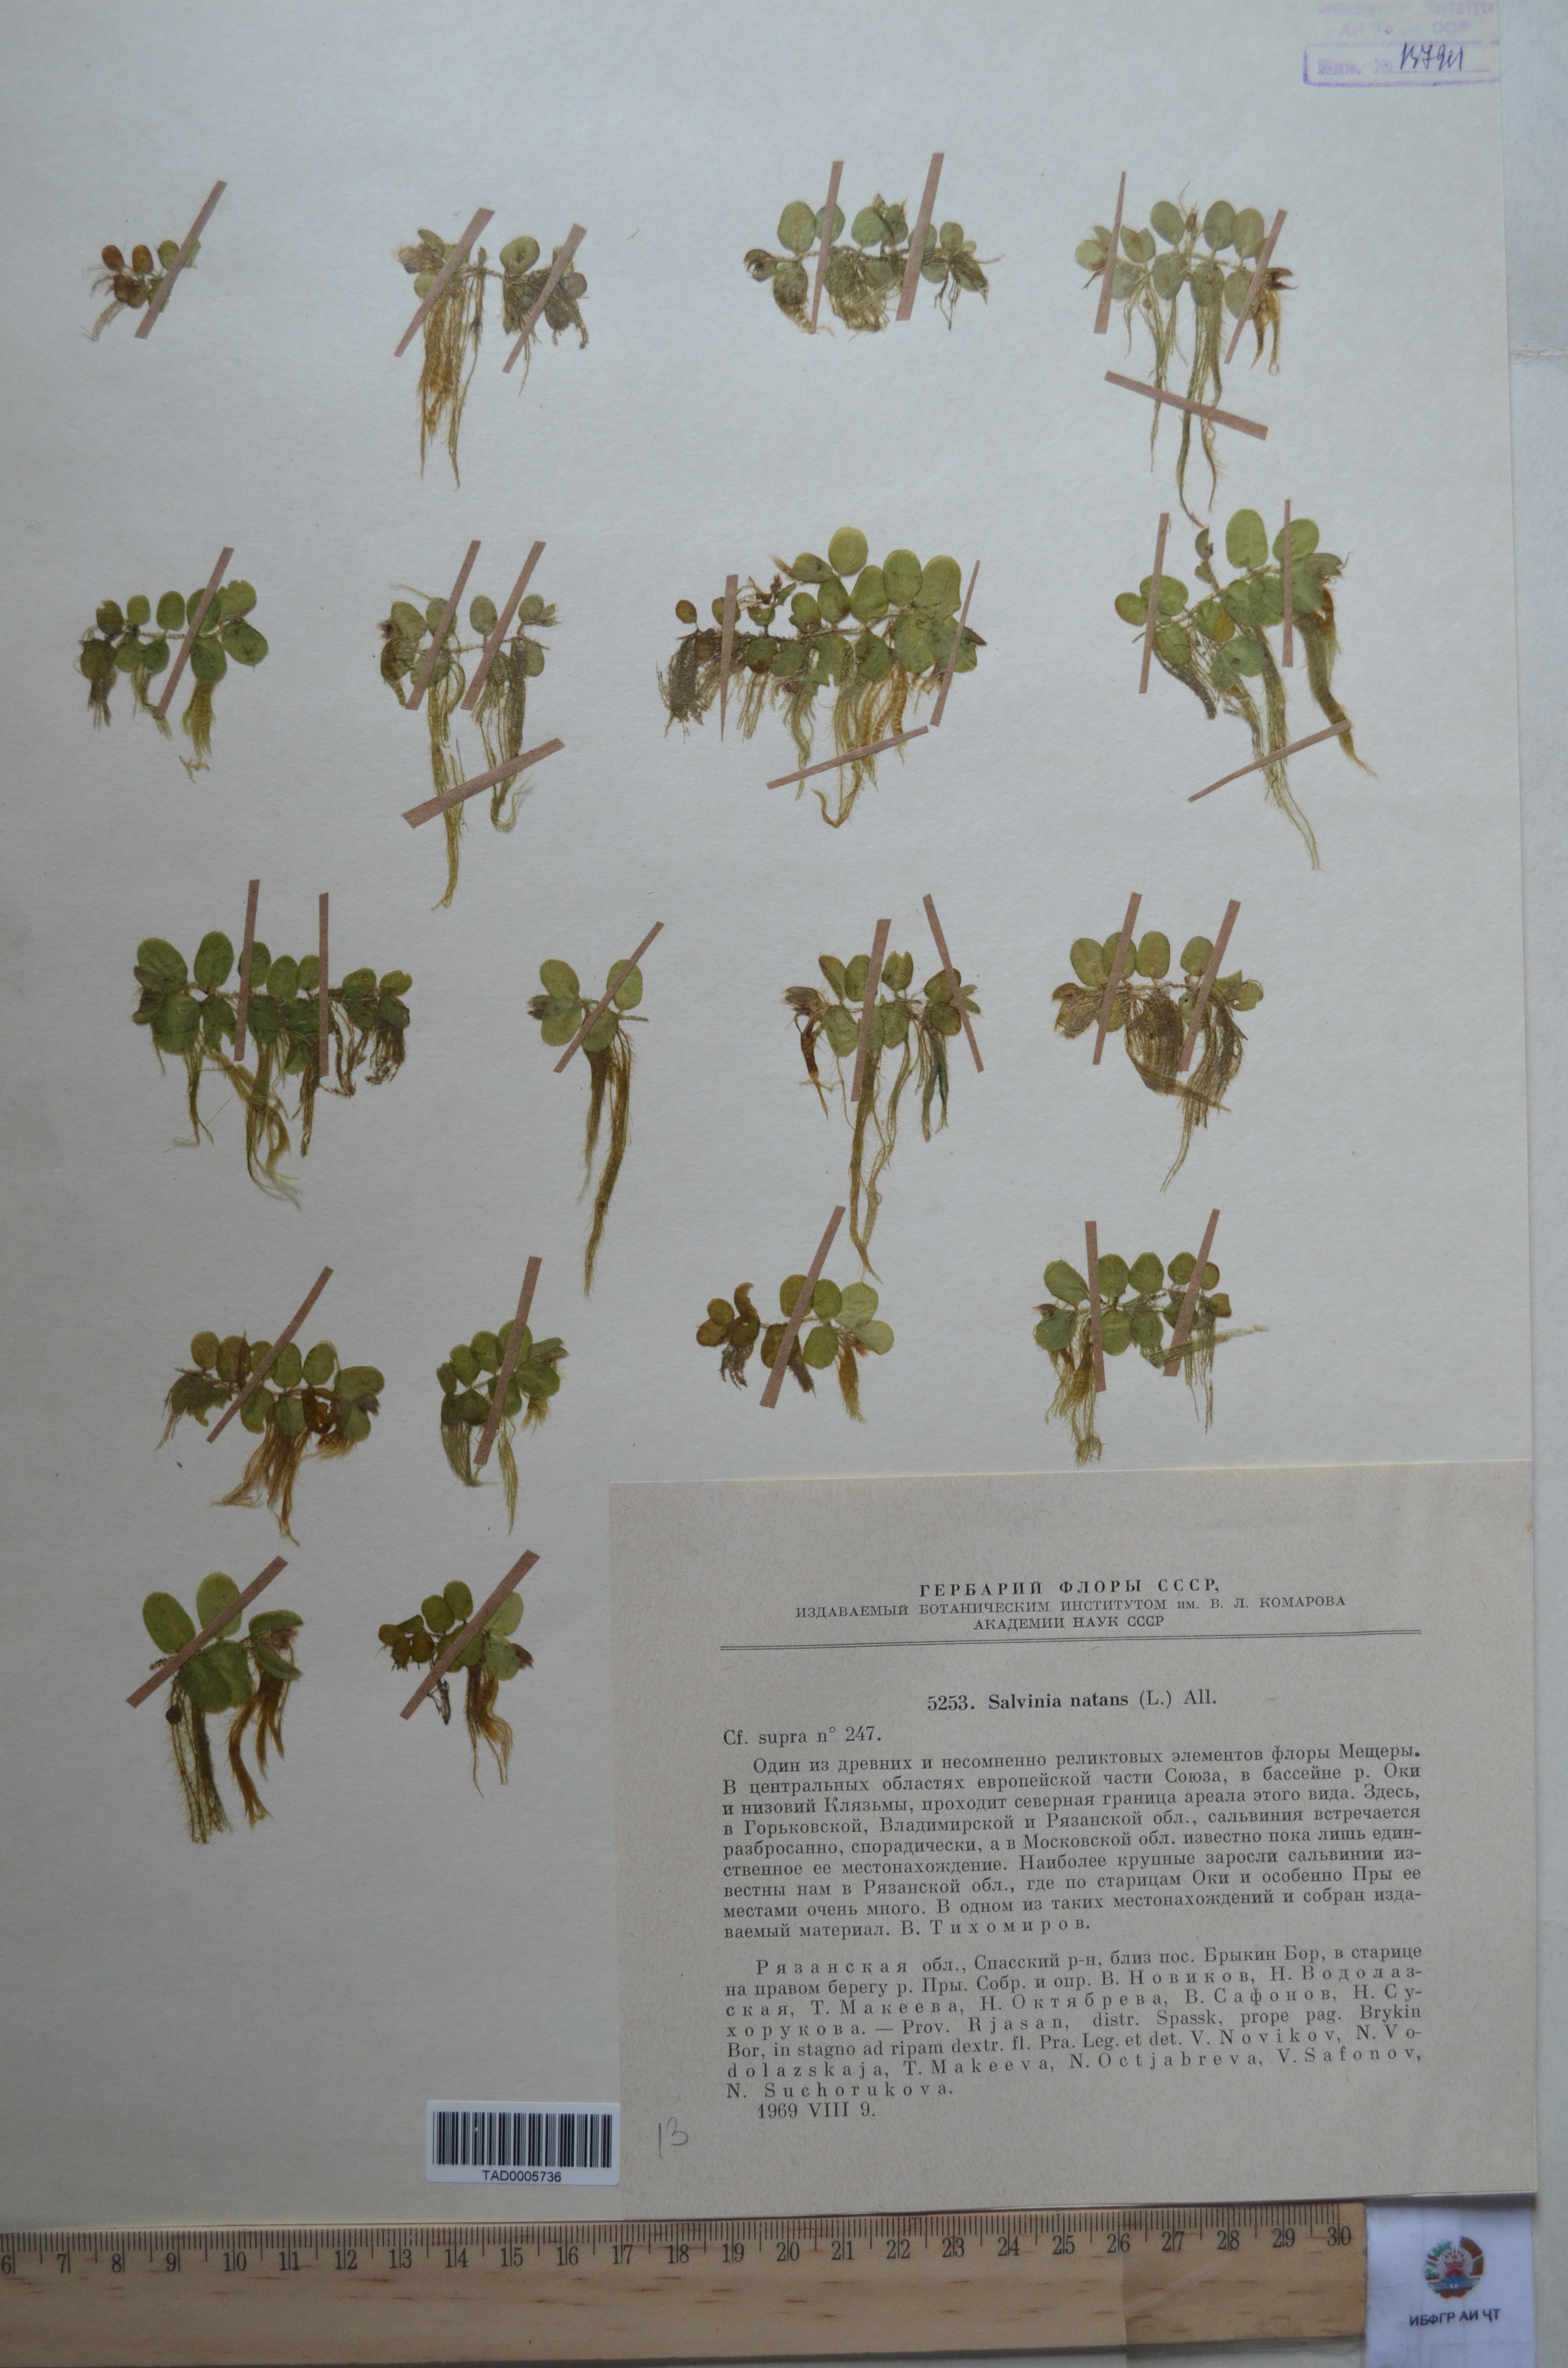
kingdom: Plantae
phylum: Tracheophyta
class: Polypodiopsida
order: Salviniales
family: Salviniaceae
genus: Salvinia
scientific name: Salvinia natans
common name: Floating fern
